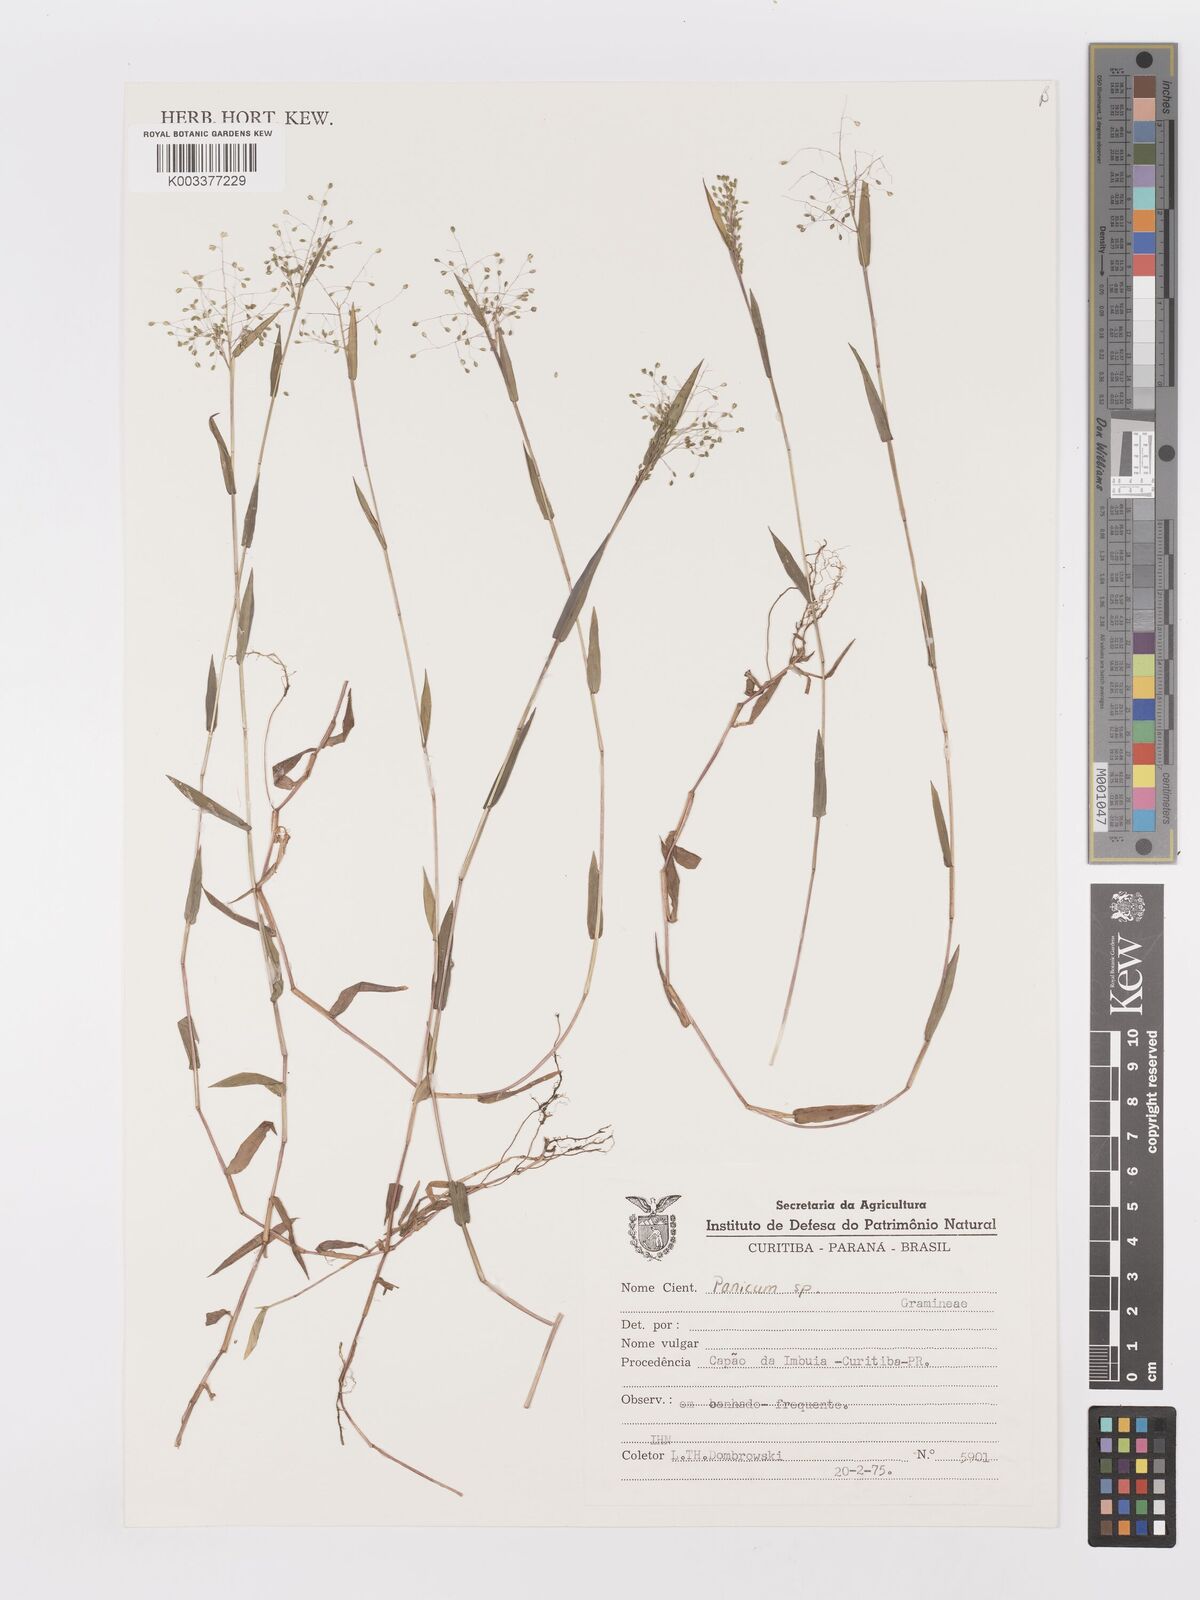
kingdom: Plantae
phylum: Tracheophyta
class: Liliopsida
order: Poales
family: Poaceae
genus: Trichanthecium
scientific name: Trichanthecium schwackeanum
